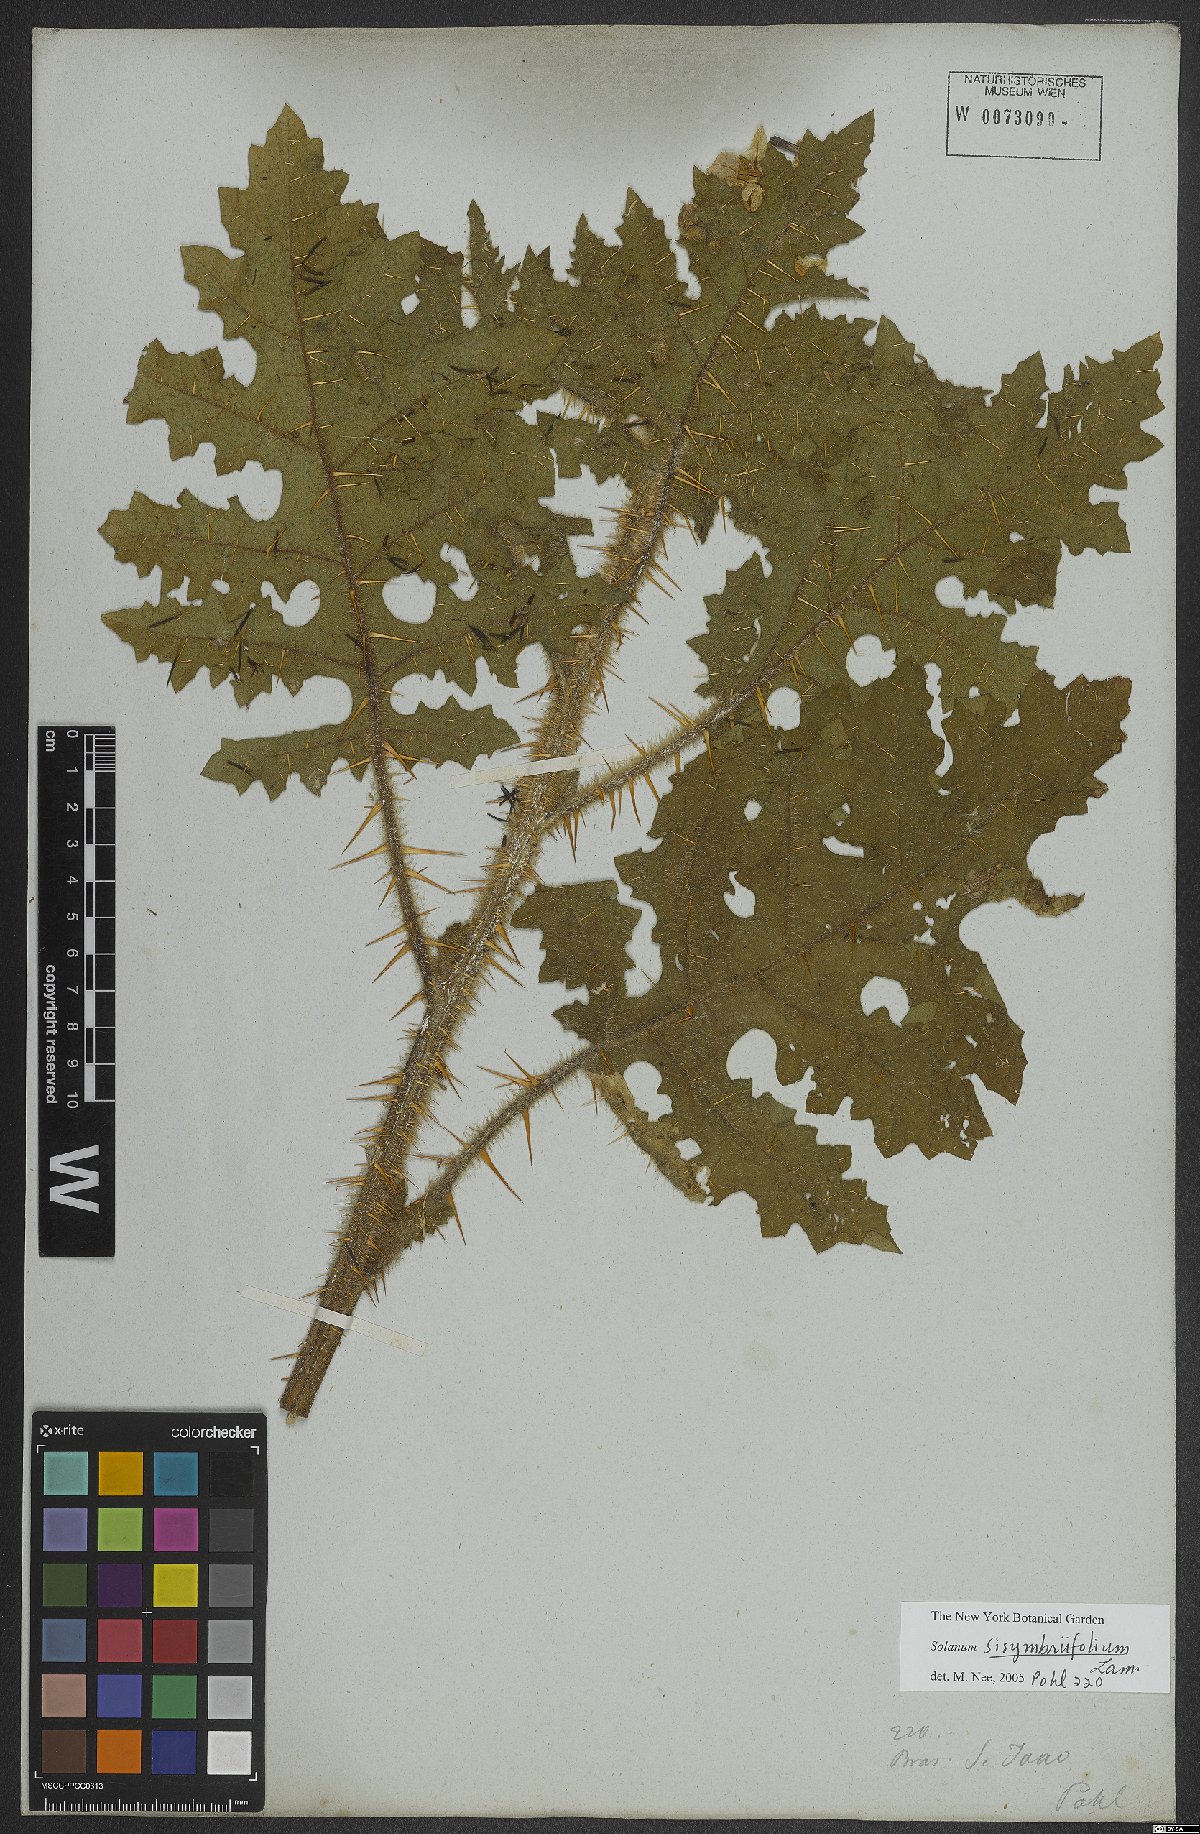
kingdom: Plantae
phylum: Tracheophyta
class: Magnoliopsida
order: Solanales
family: Solanaceae
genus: Solanum
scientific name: Solanum sisymbriifolium
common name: Red buffalo-bur
